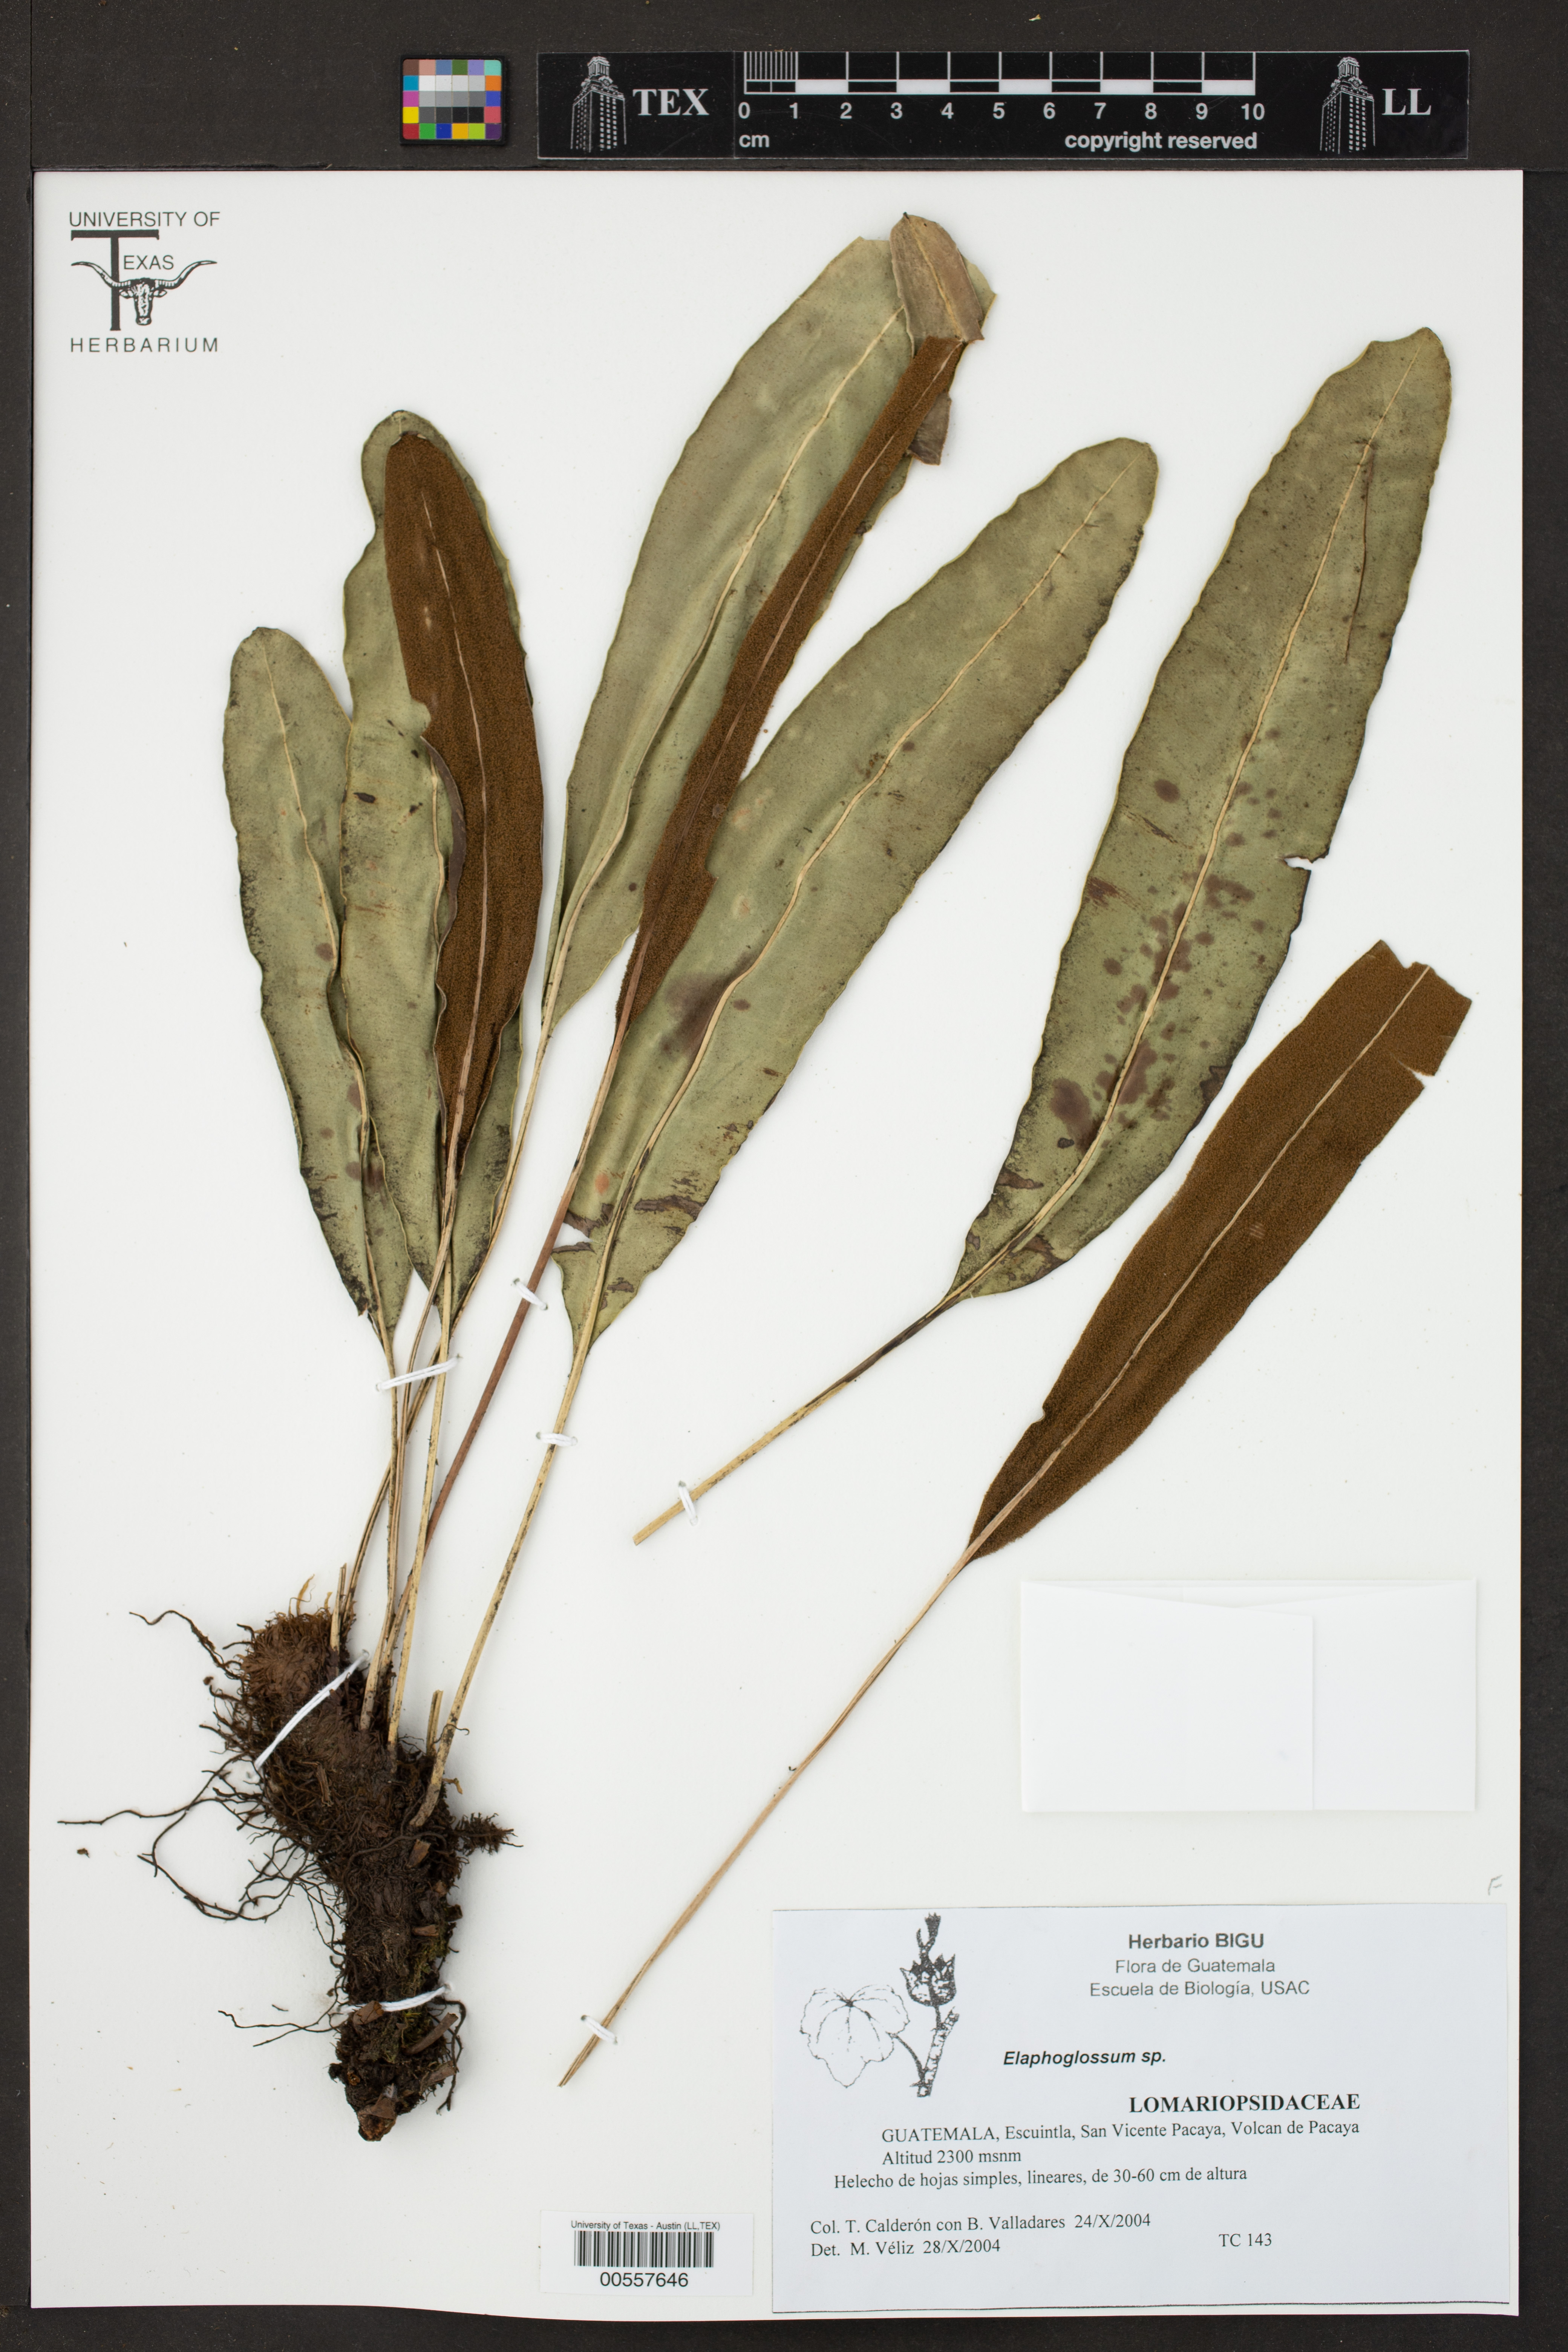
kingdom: Plantae
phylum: Tracheophyta
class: Polypodiopsida
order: Polypodiales
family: Dryopteridaceae
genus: Elaphoglossum
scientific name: Elaphoglossum
